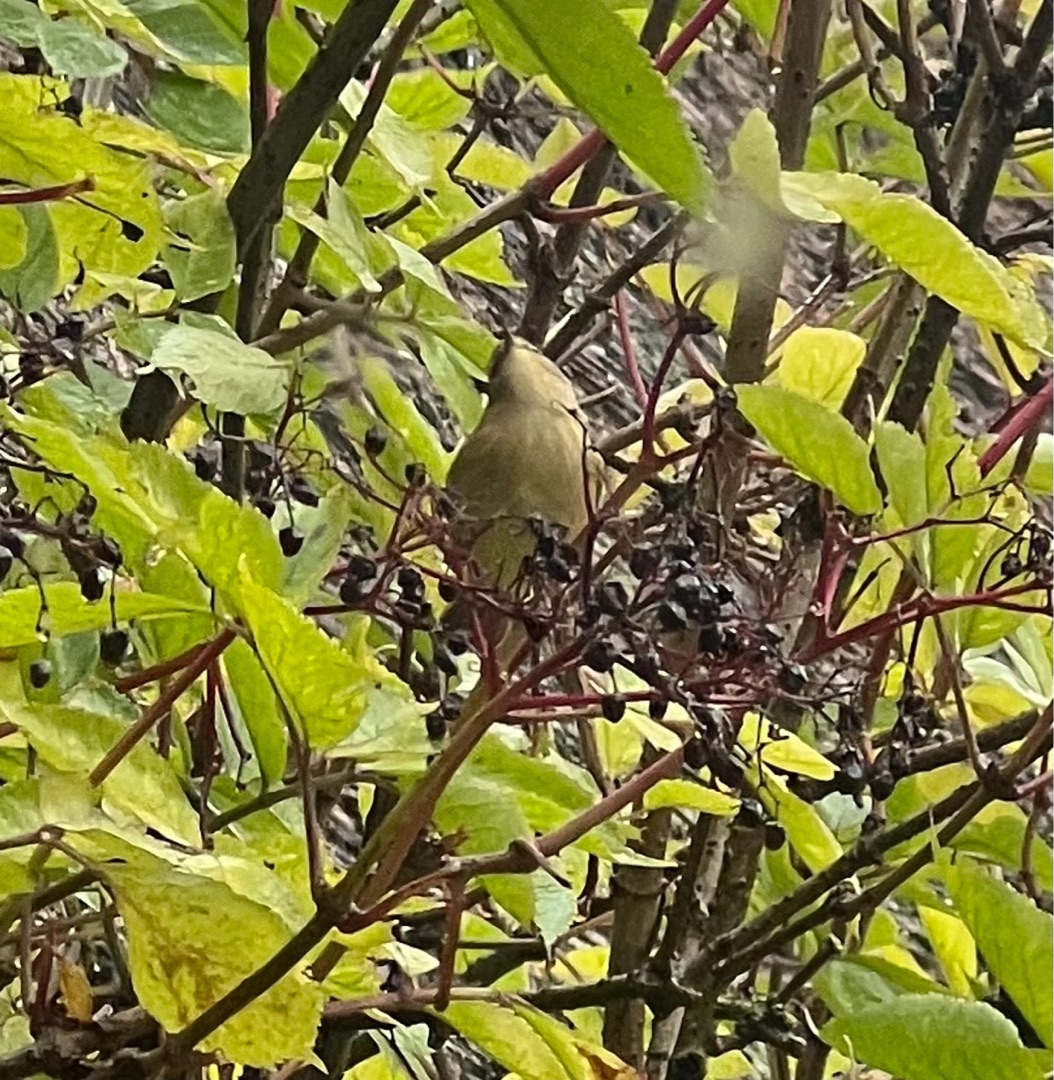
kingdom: Animalia
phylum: Chordata
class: Aves
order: Passeriformes
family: Phylloscopidae
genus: Phylloscopus
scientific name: Phylloscopus collybita
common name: Gransanger
